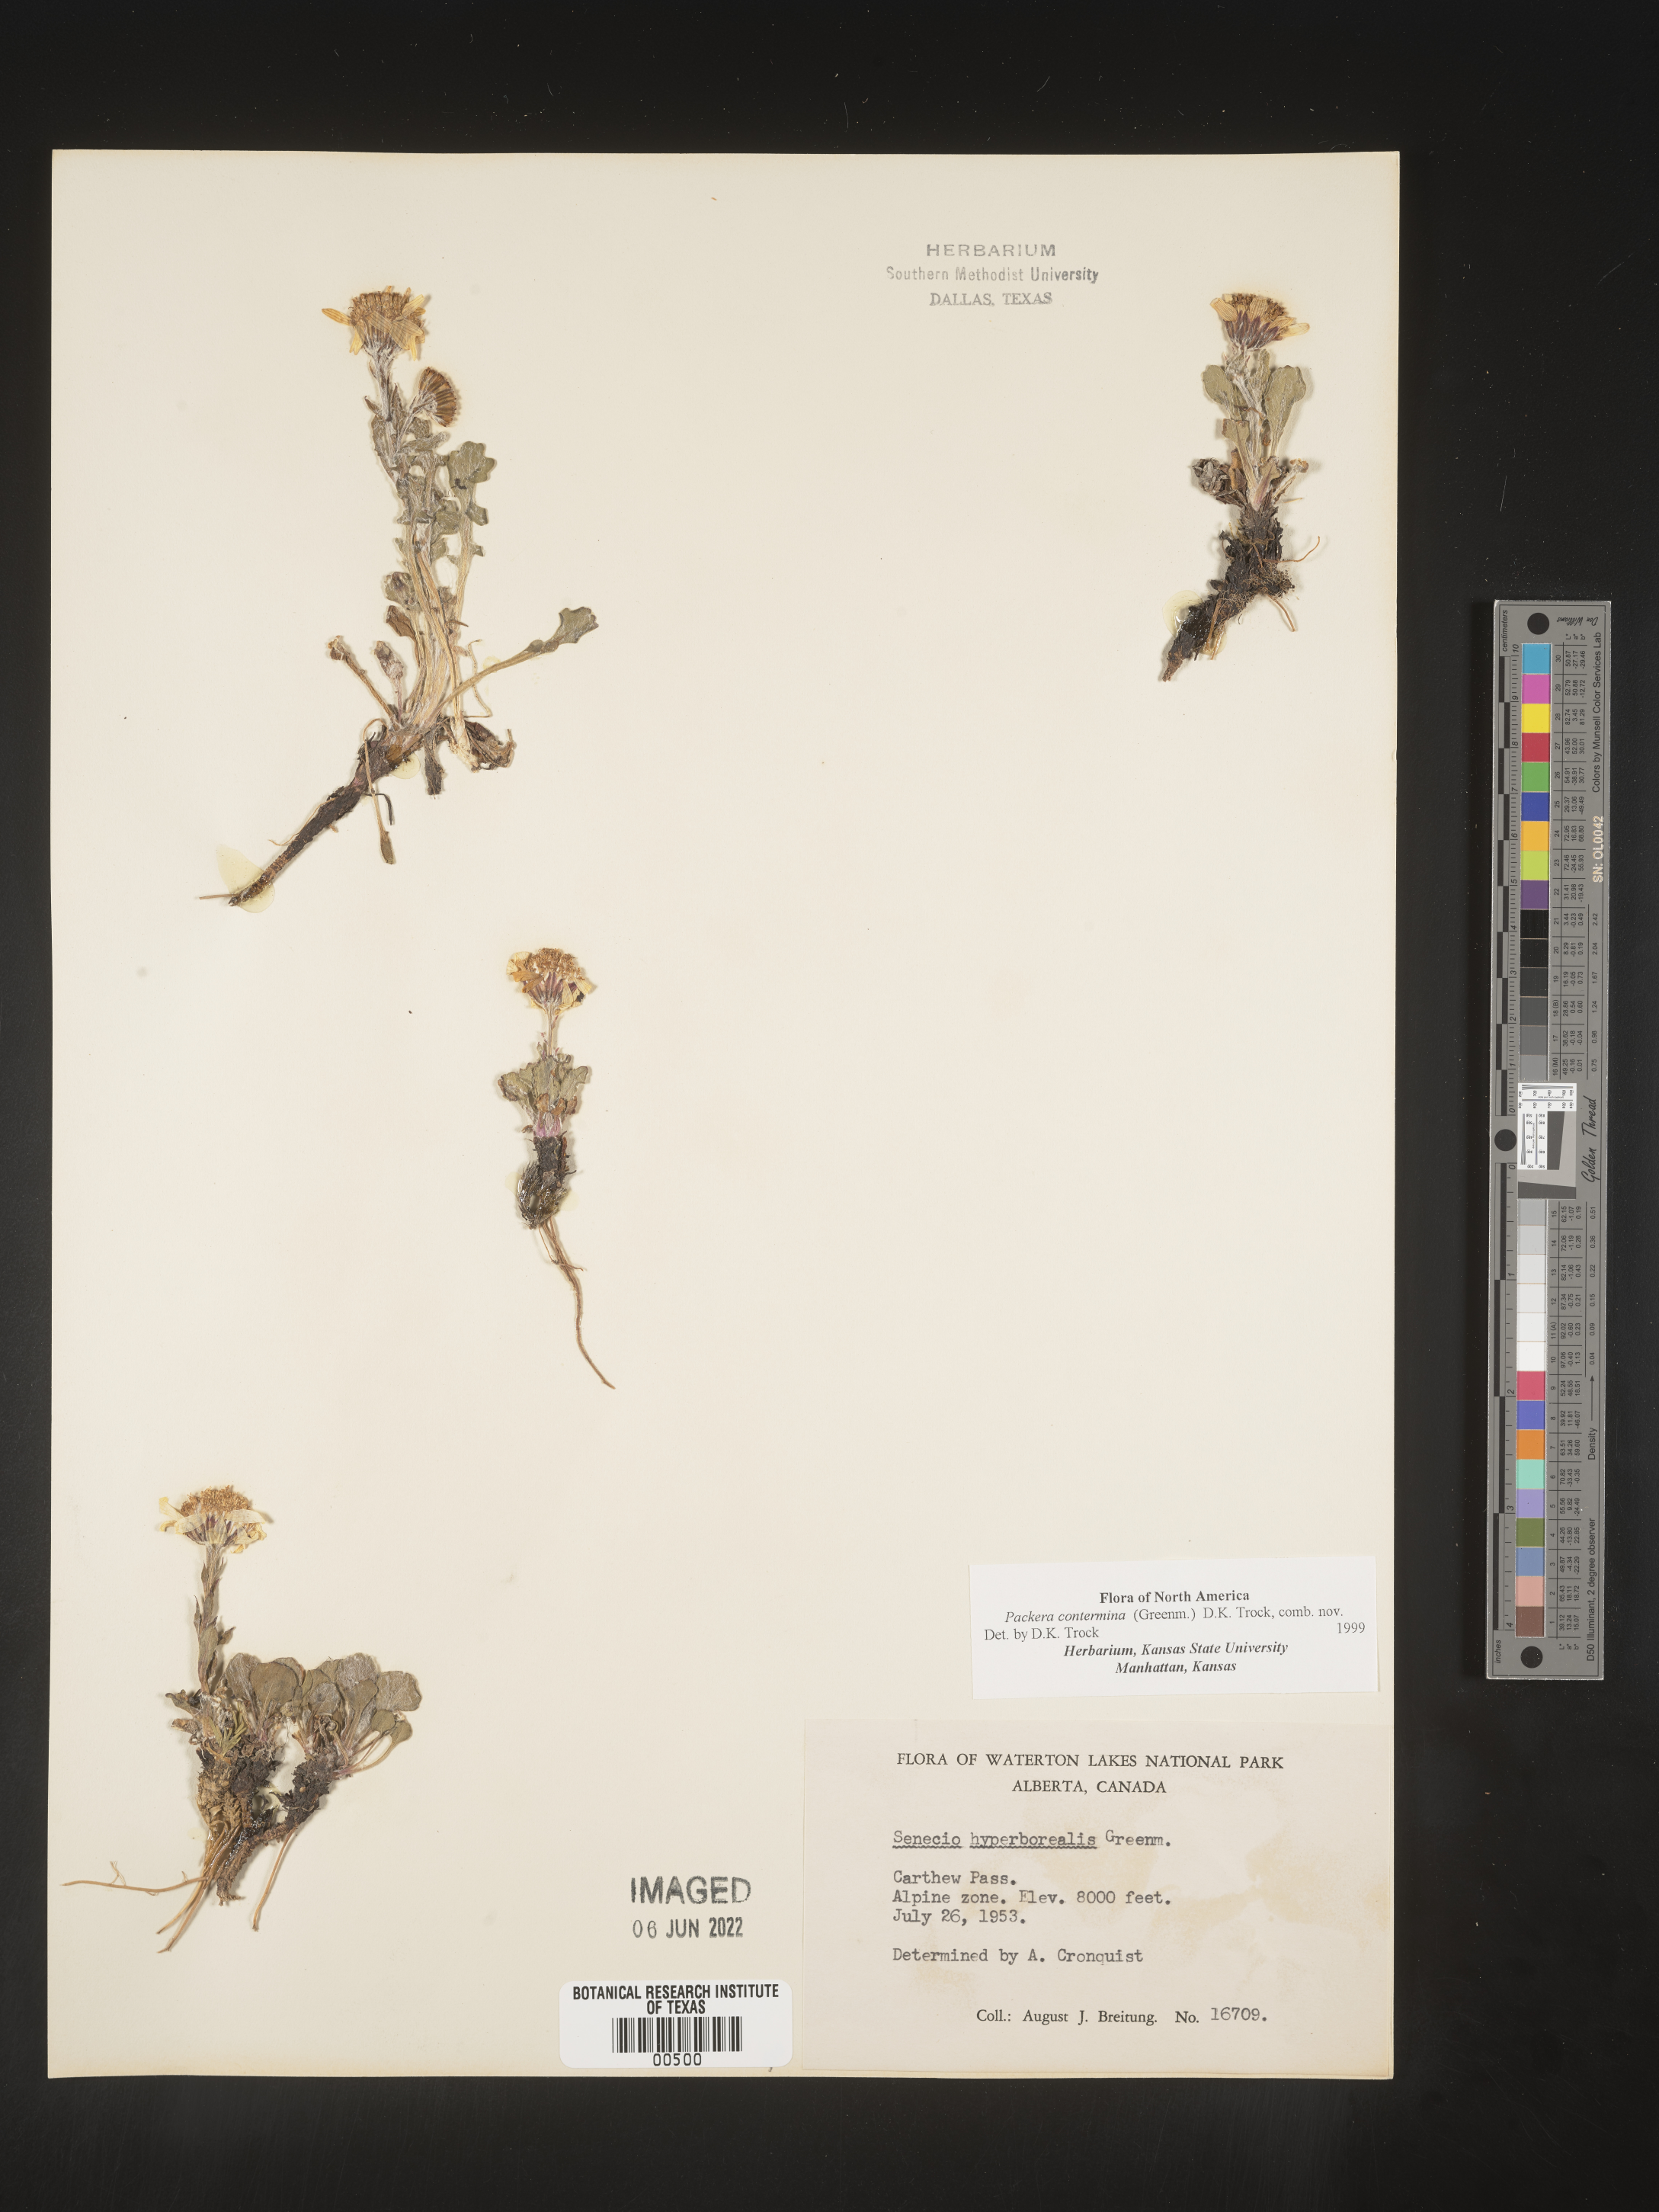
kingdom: Plantae
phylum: Tracheophyta
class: Magnoliopsida
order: Asterales
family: Asteraceae
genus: Packera
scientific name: Packera
